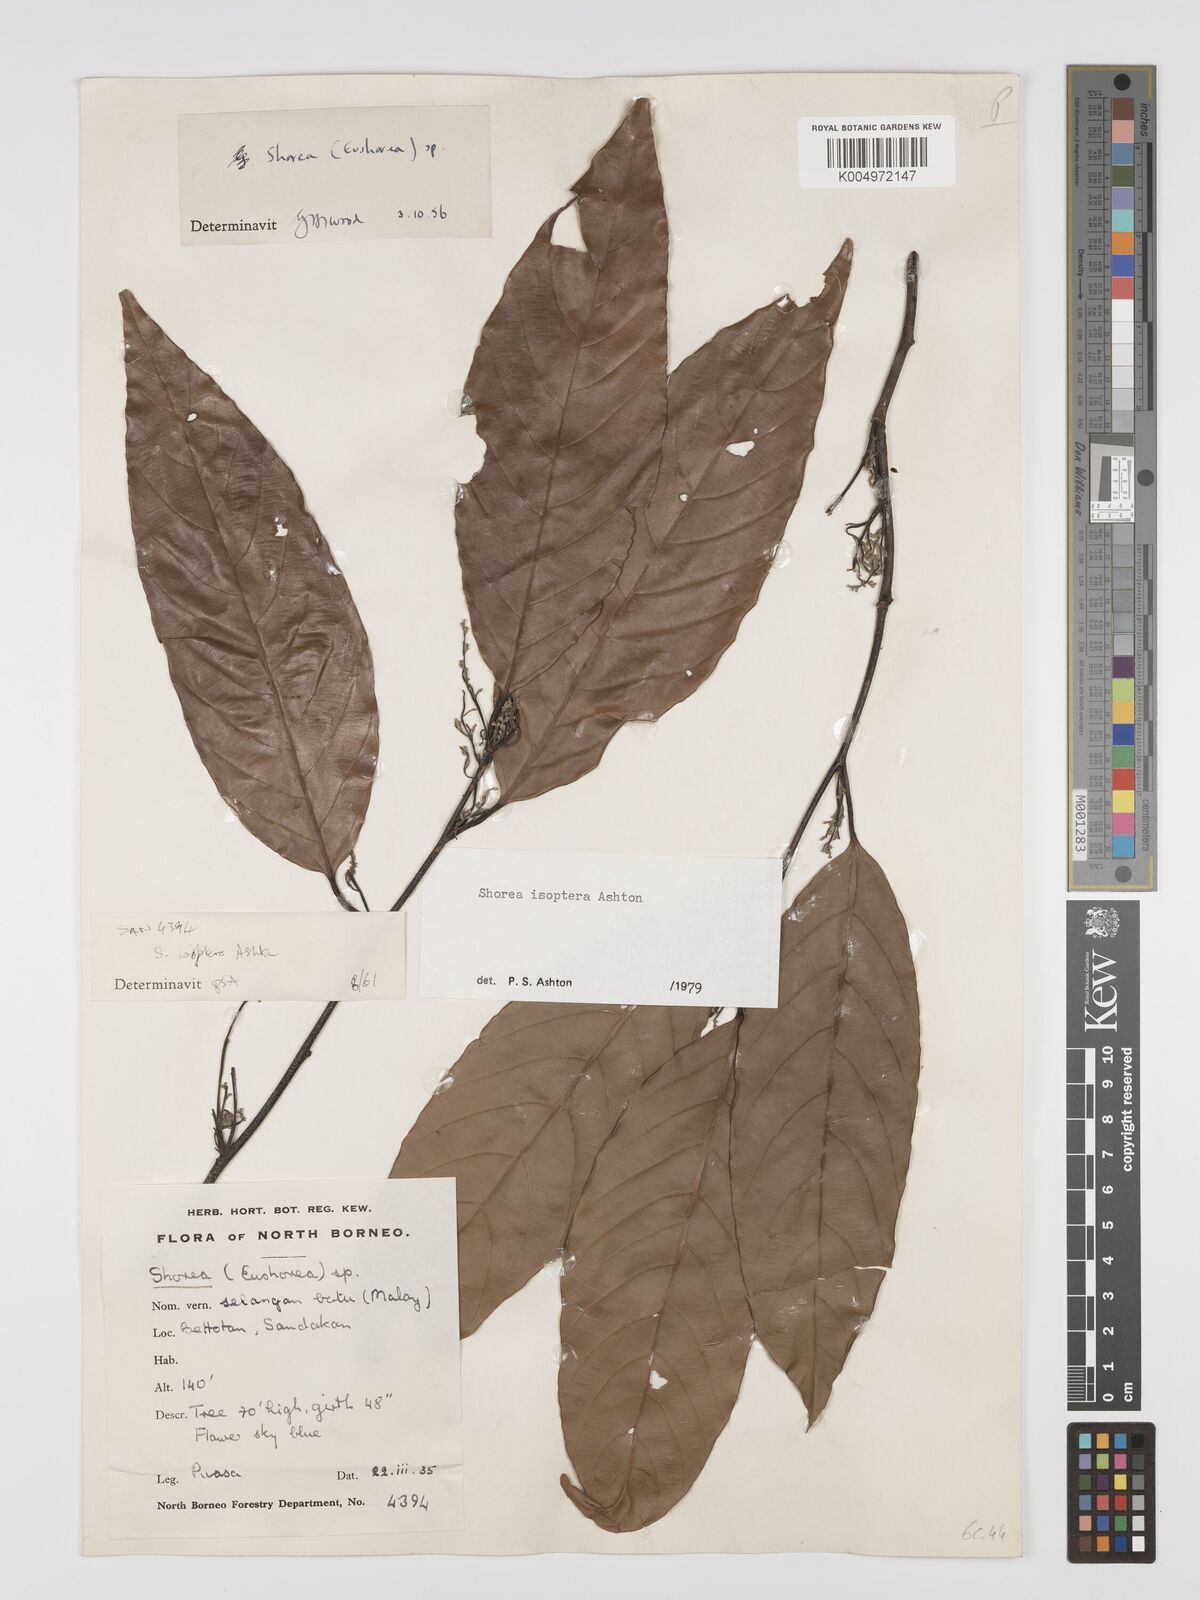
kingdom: Plantae
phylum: Tracheophyta
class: Magnoliopsida
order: Malvales
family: Dipterocarpaceae
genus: Neohopea
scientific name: Neohopea isoptera
